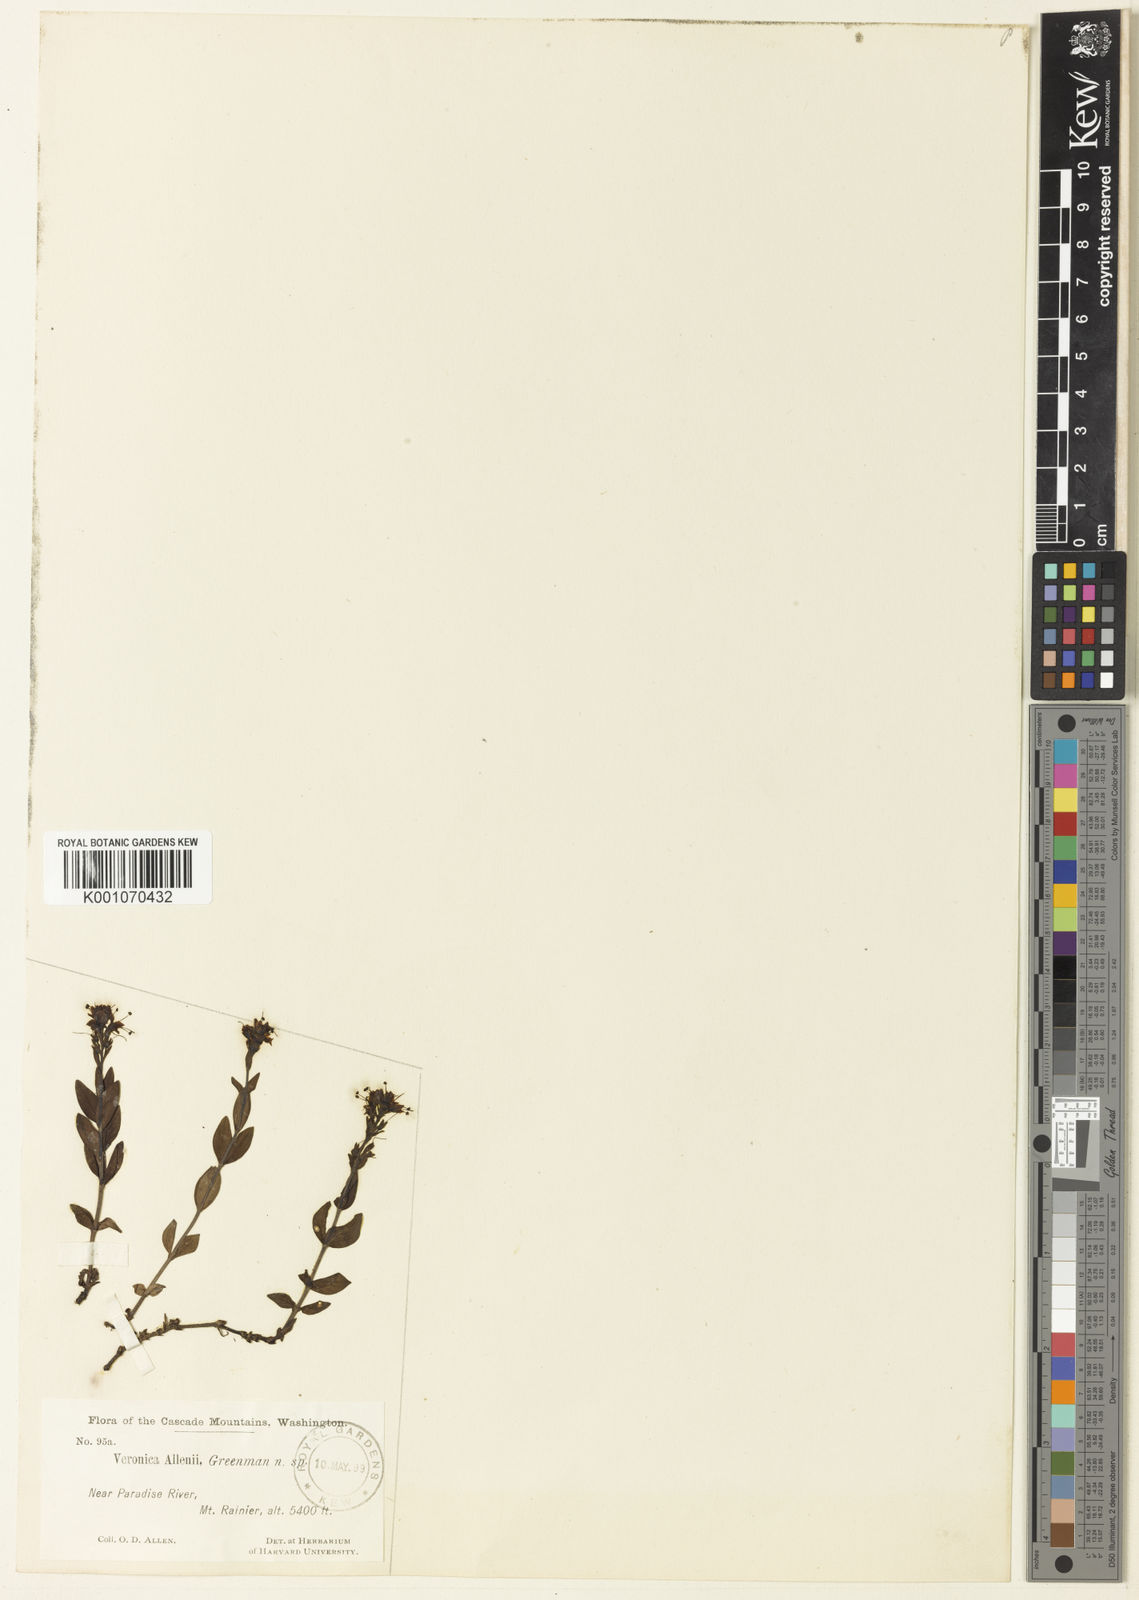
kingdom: Plantae
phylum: Tracheophyta
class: Magnoliopsida
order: Lamiales
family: Plantaginaceae
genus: Veronica
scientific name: Veronica cusickii
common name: Cusick's speedwell
